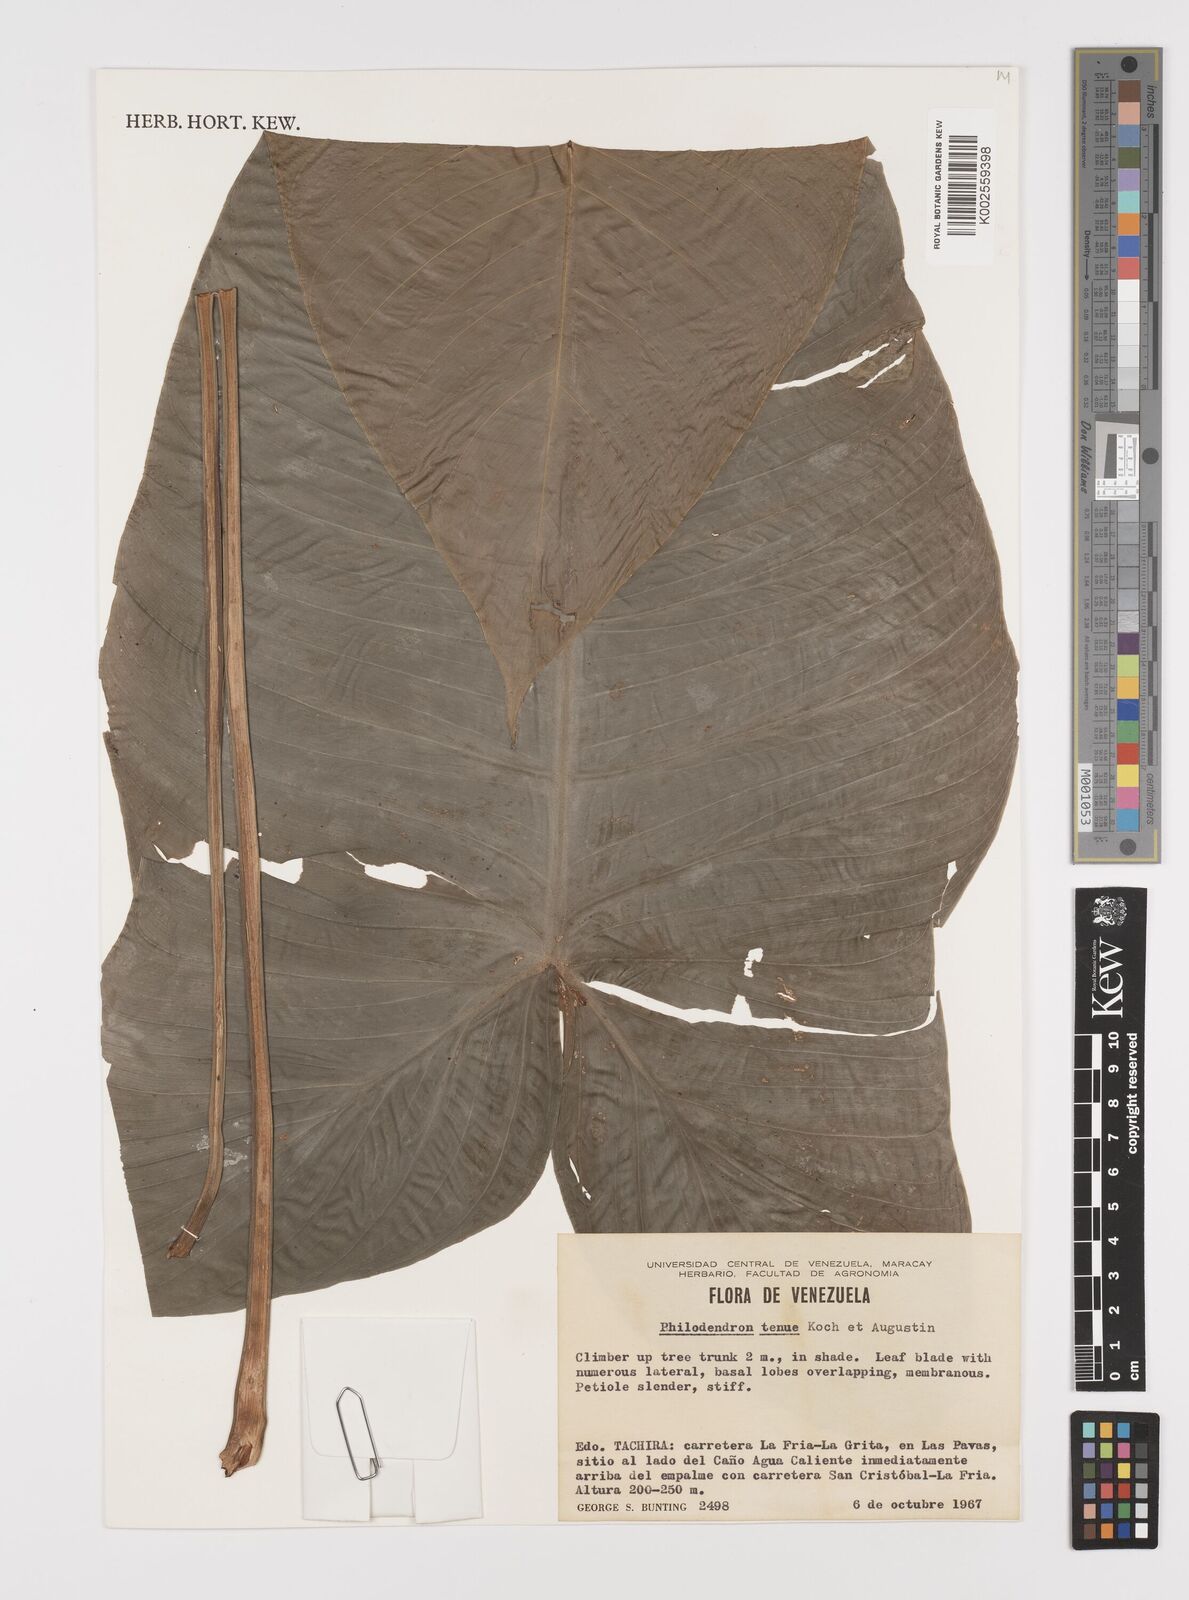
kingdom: Plantae
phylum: Tracheophyta
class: Liliopsida
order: Alismatales
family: Araceae
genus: Philodendron
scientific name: Philodendron tenue
